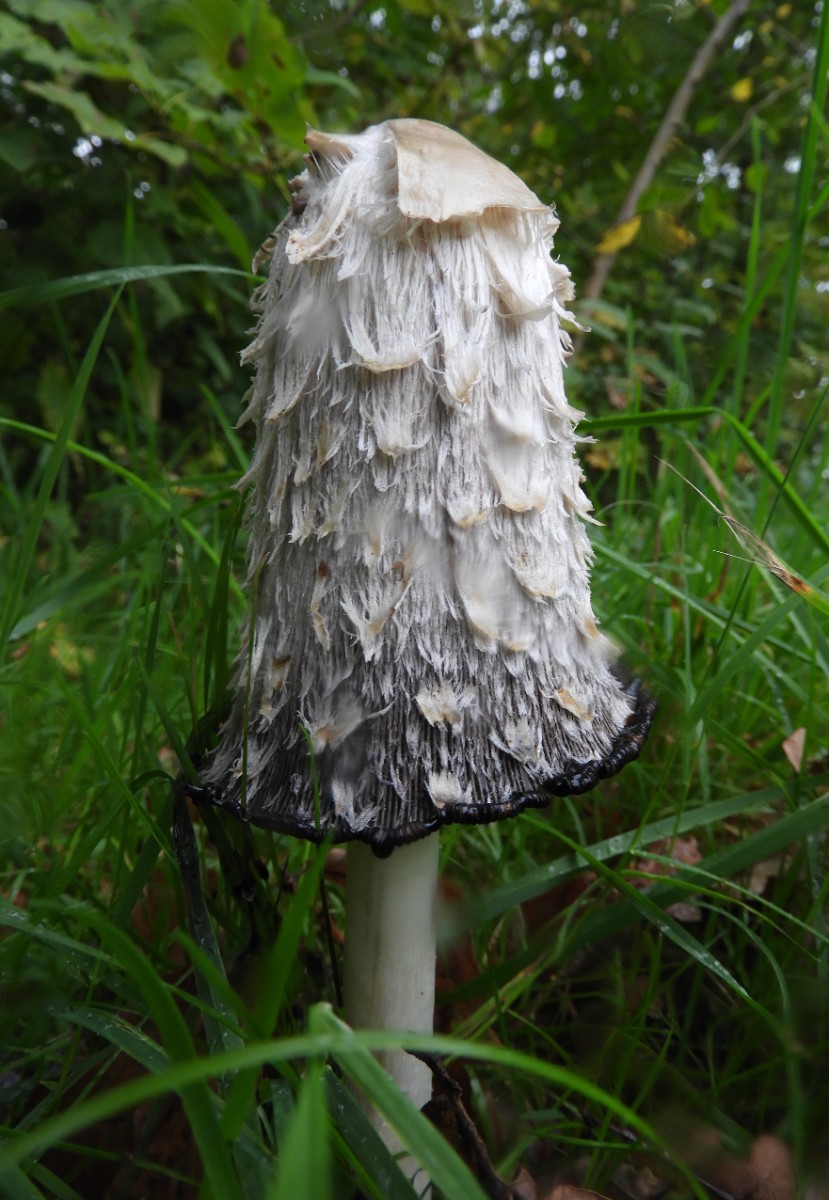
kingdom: Fungi
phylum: Basidiomycota
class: Agaricomycetes
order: Agaricales
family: Agaricaceae
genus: Coprinus
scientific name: Coprinus comatus
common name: stor parykhat
